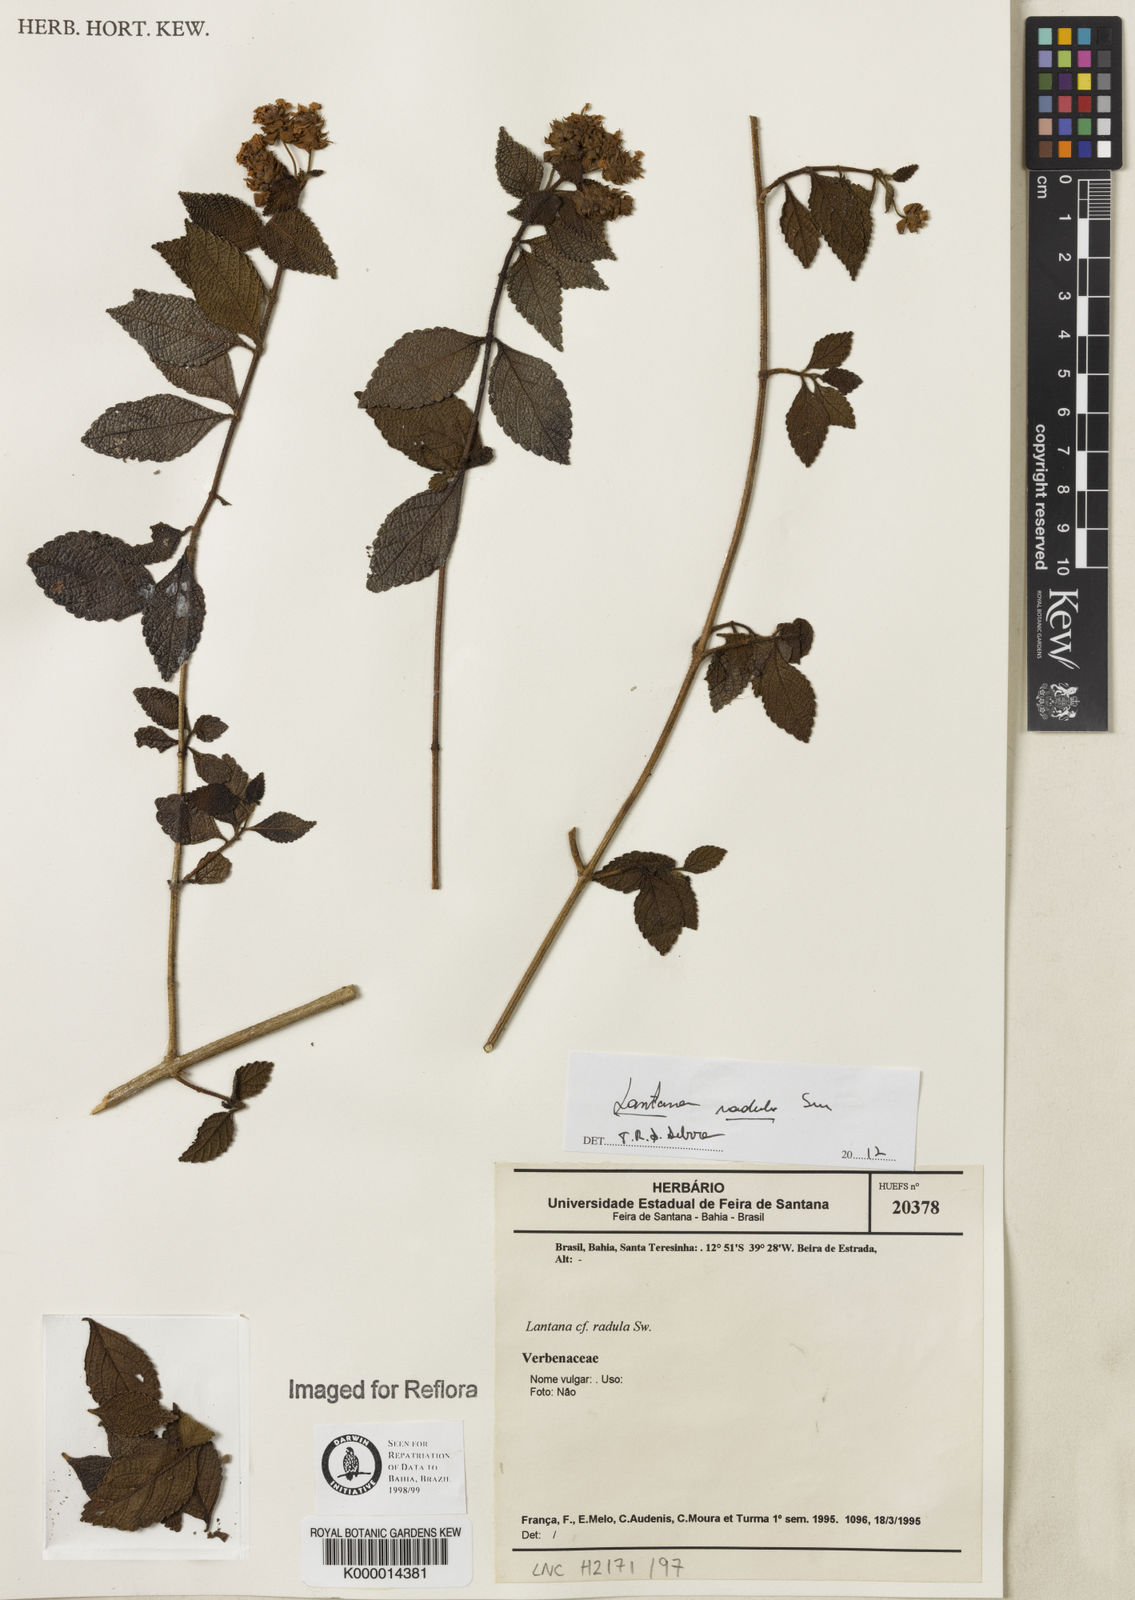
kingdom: Plantae
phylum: Tracheophyta
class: Magnoliopsida
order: Lamiales
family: Verbenaceae
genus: Lantana
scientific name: Lantana radula
